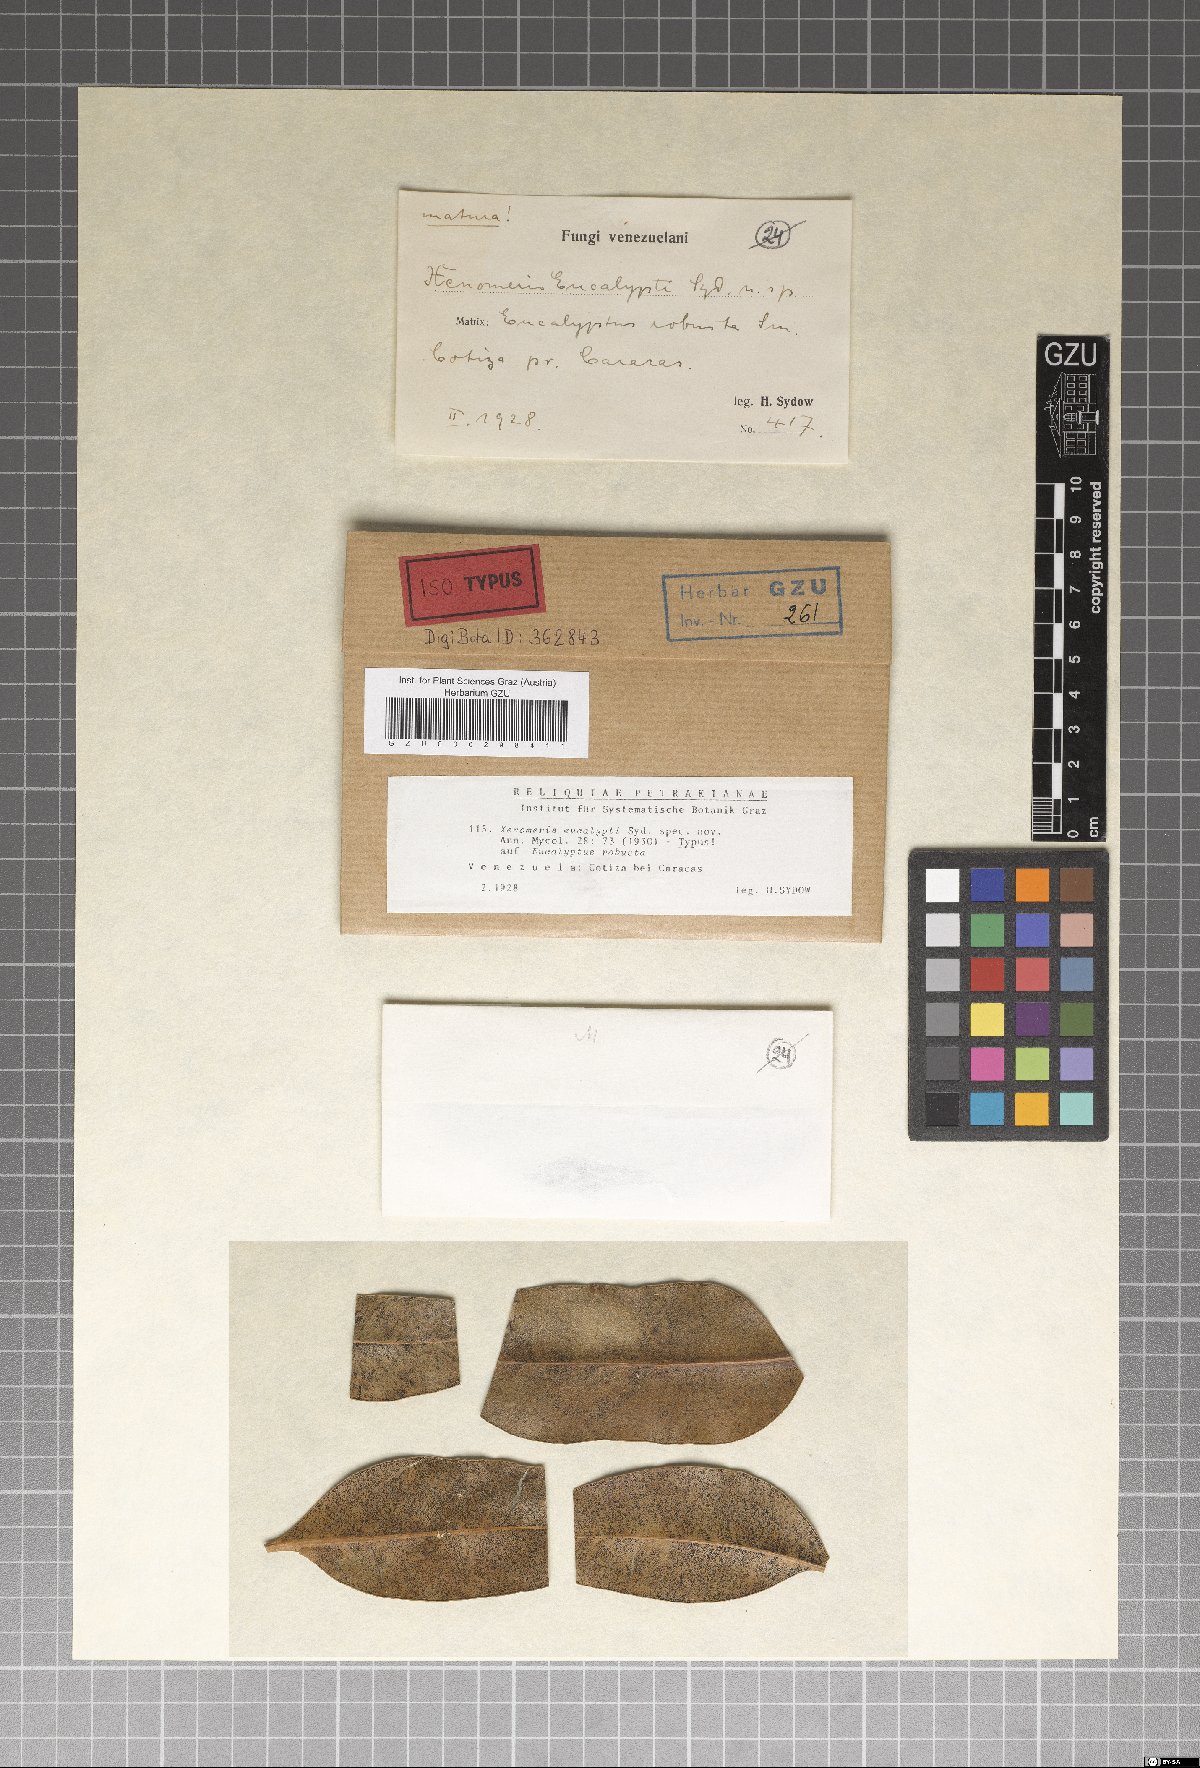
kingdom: Fungi
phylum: Ascomycota
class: Dothideomycetes
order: Venturiales
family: Venturiaceae
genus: Xenomeris
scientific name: Xenomeris eucalypti
